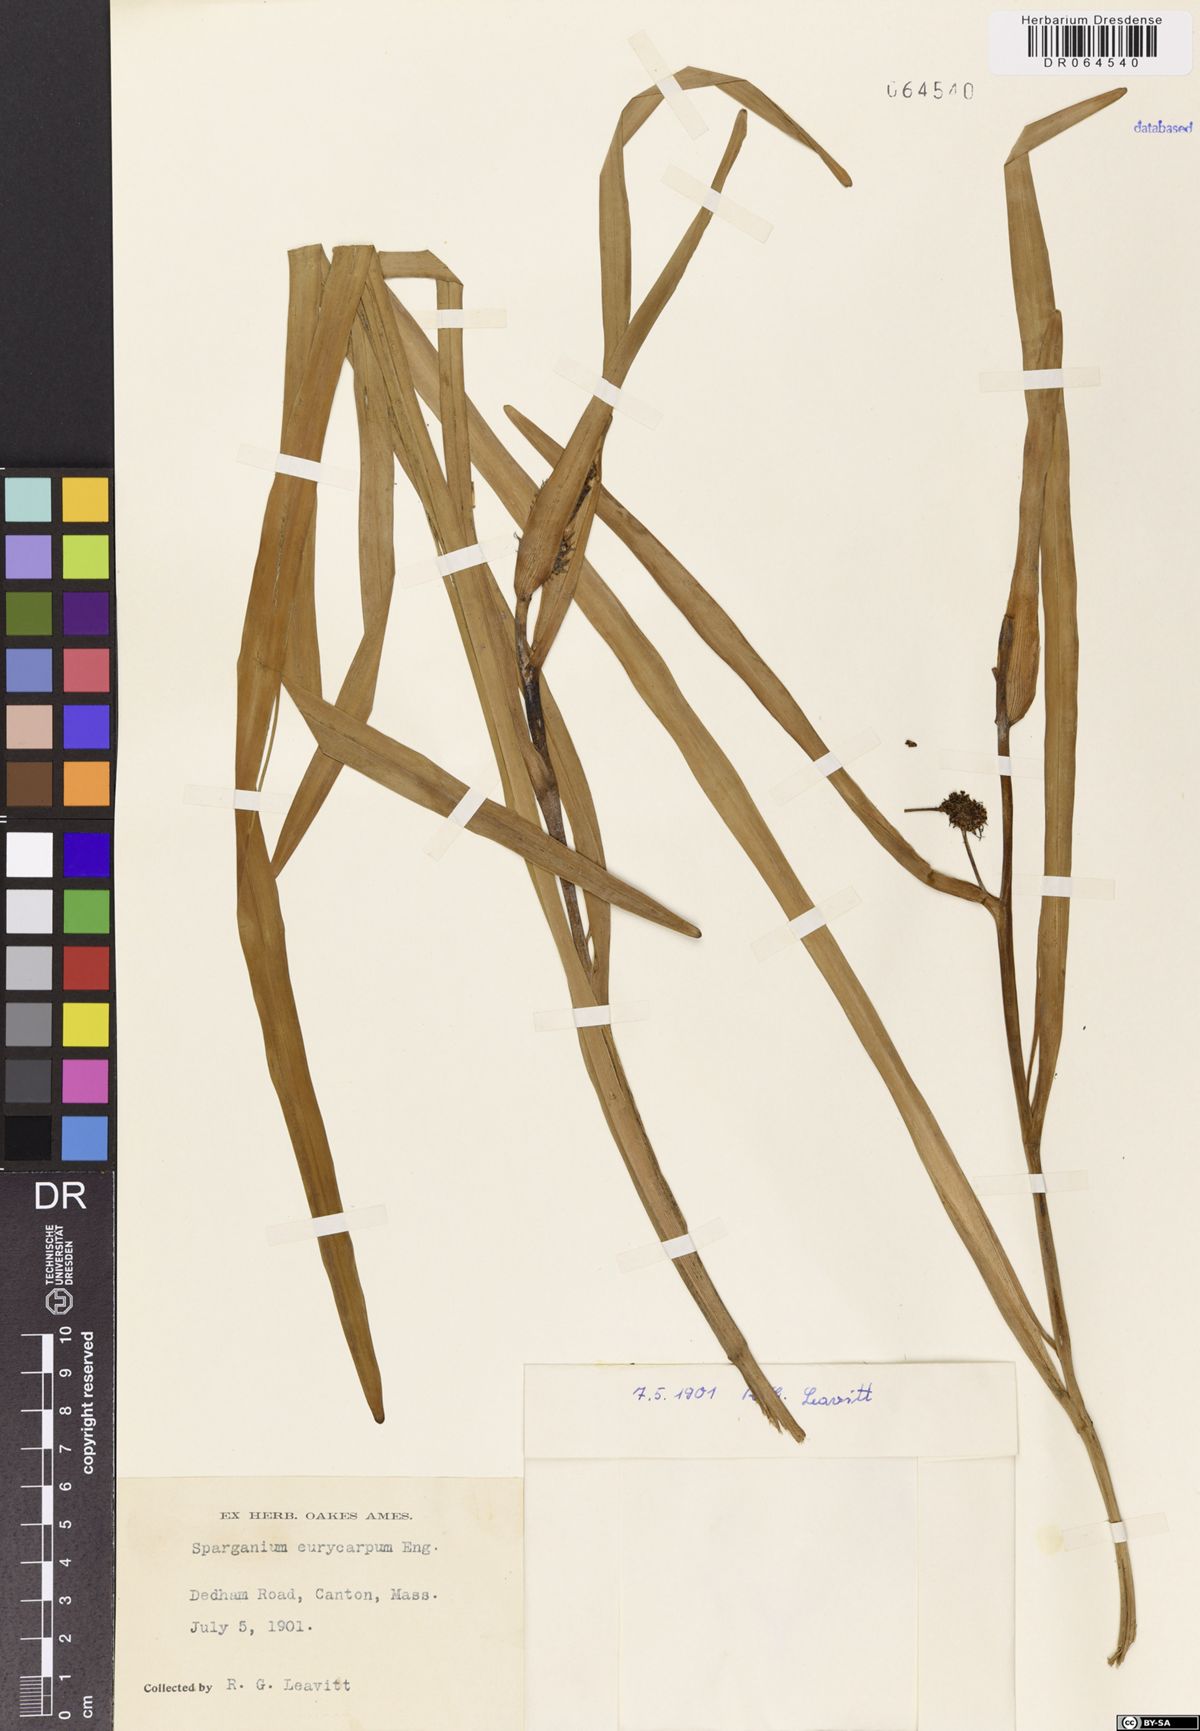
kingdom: Plantae
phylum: Tracheophyta
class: Liliopsida
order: Poales
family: Typhaceae
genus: Sparganium
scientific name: Sparganium eurycarpum
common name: Broad-fruited burreed
